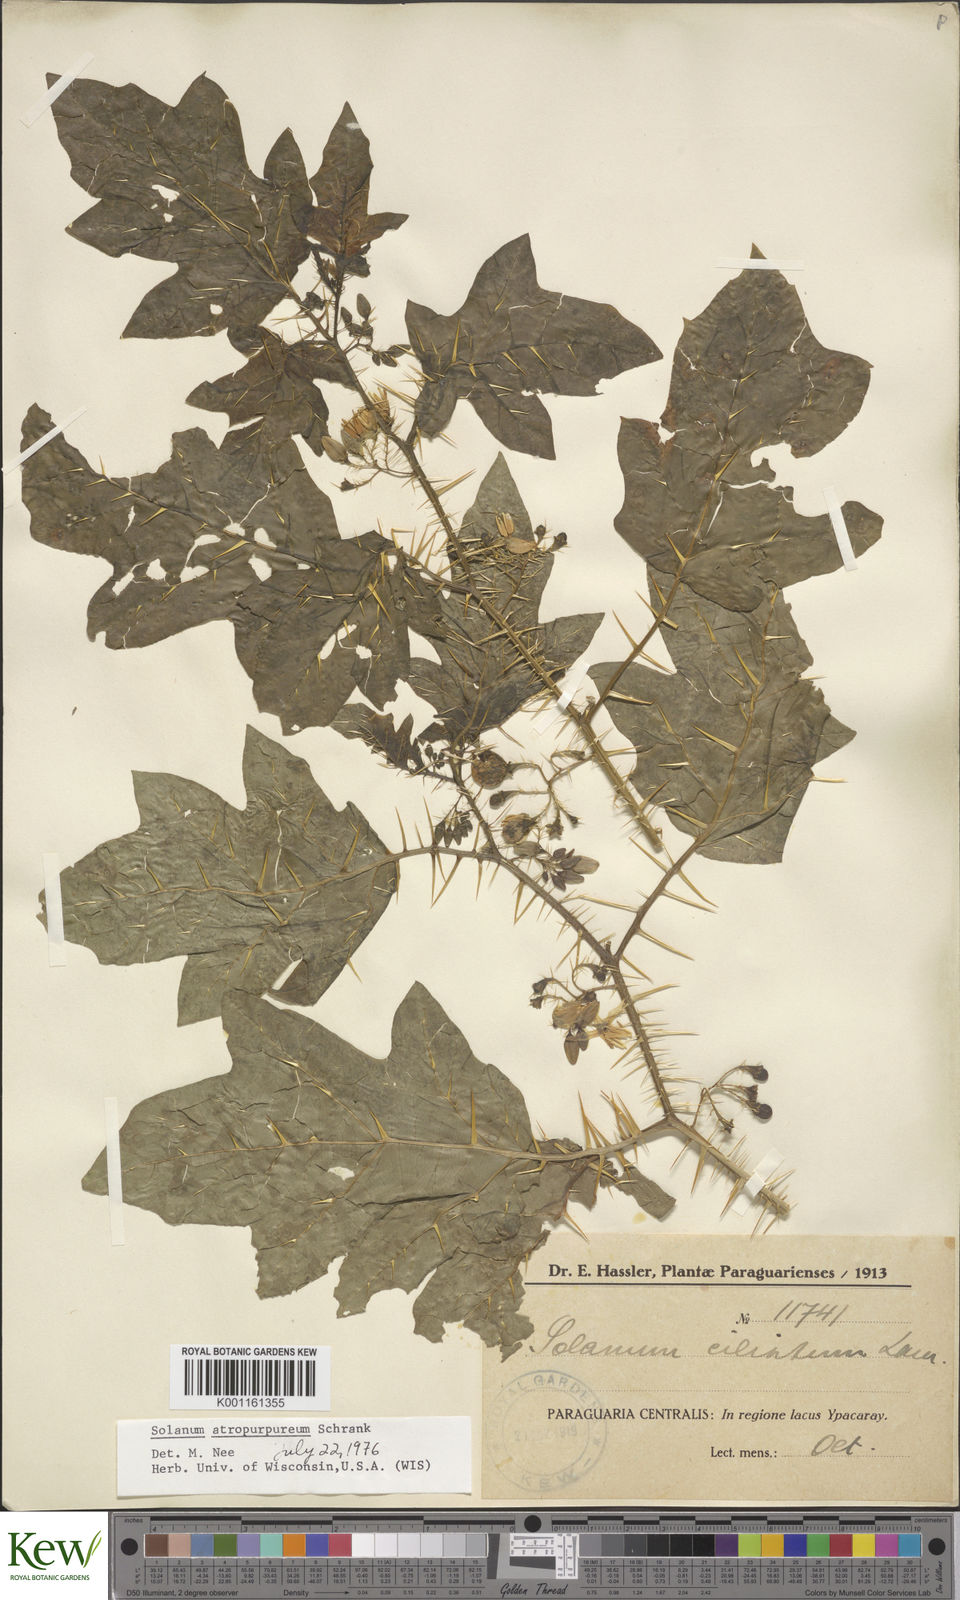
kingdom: Plantae
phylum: Tracheophyta
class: Magnoliopsida
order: Solanales
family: Solanaceae
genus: Solanum
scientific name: Solanum atropurpureum
